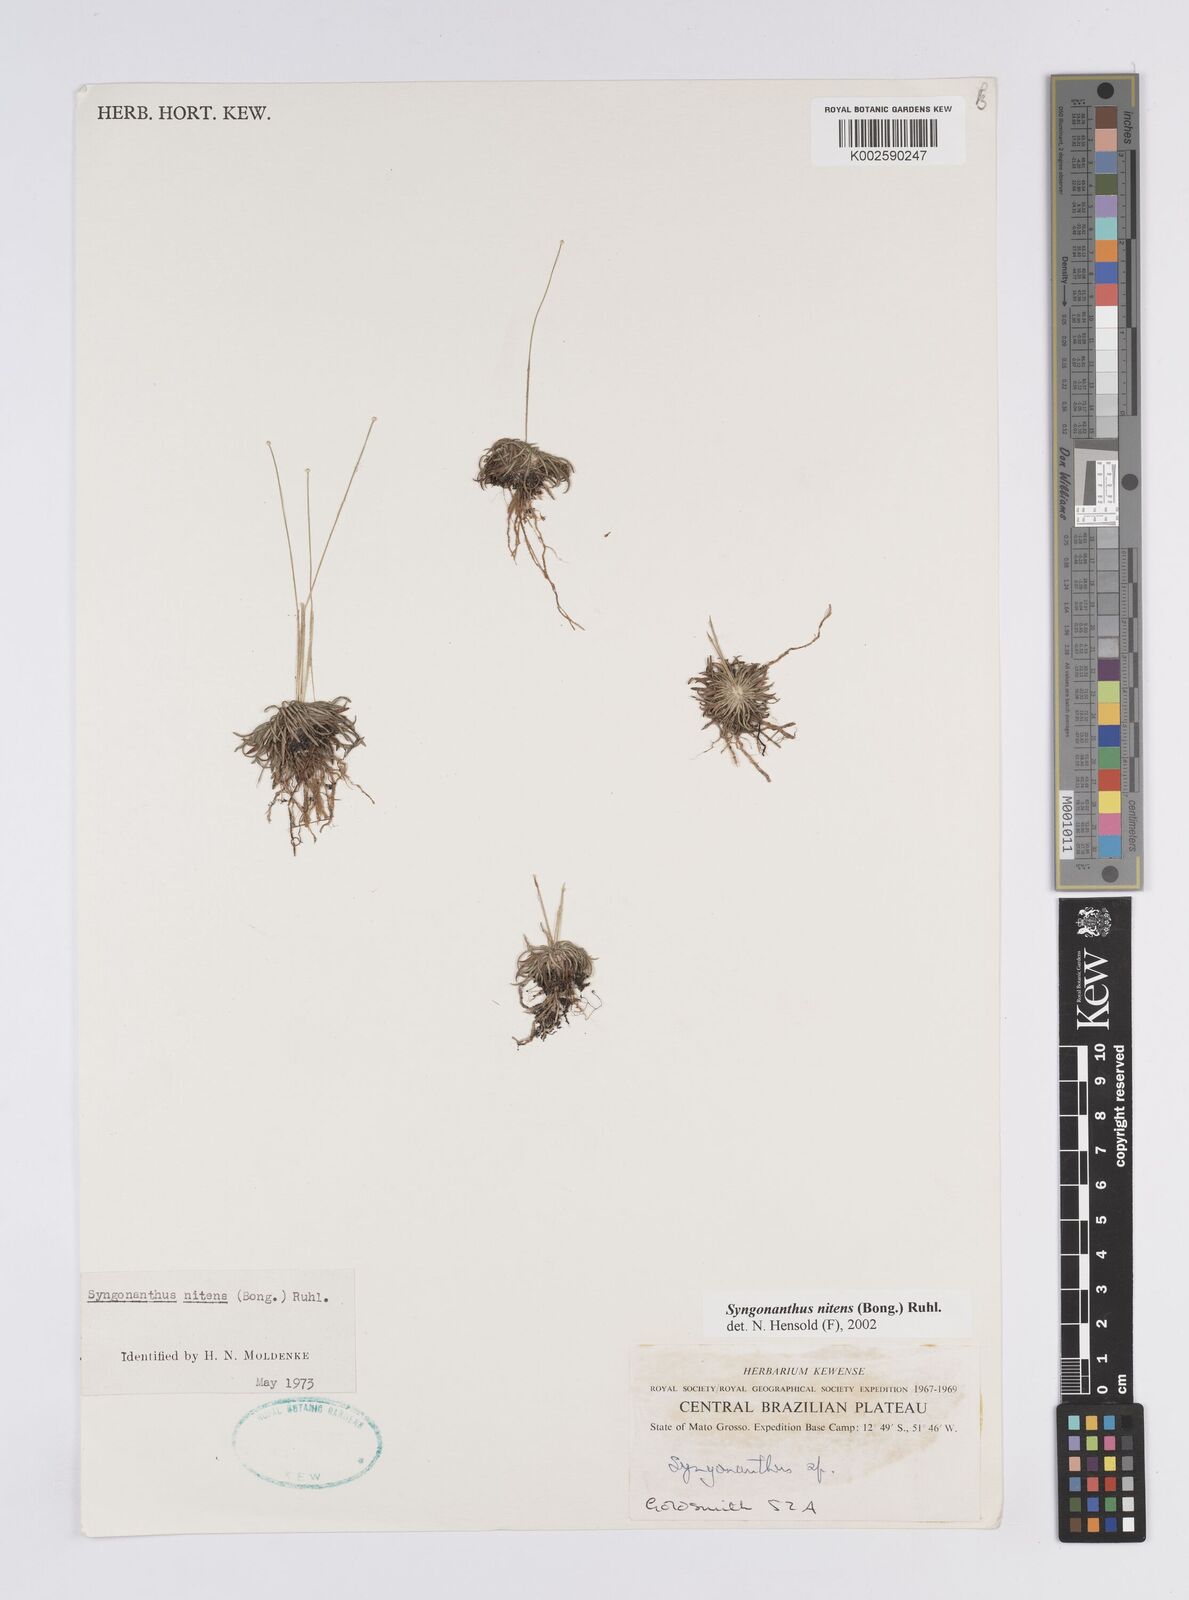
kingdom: Plantae
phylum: Tracheophyta
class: Liliopsida
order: Poales
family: Eriocaulaceae
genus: Syngonanthus
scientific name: Syngonanthus nitens
